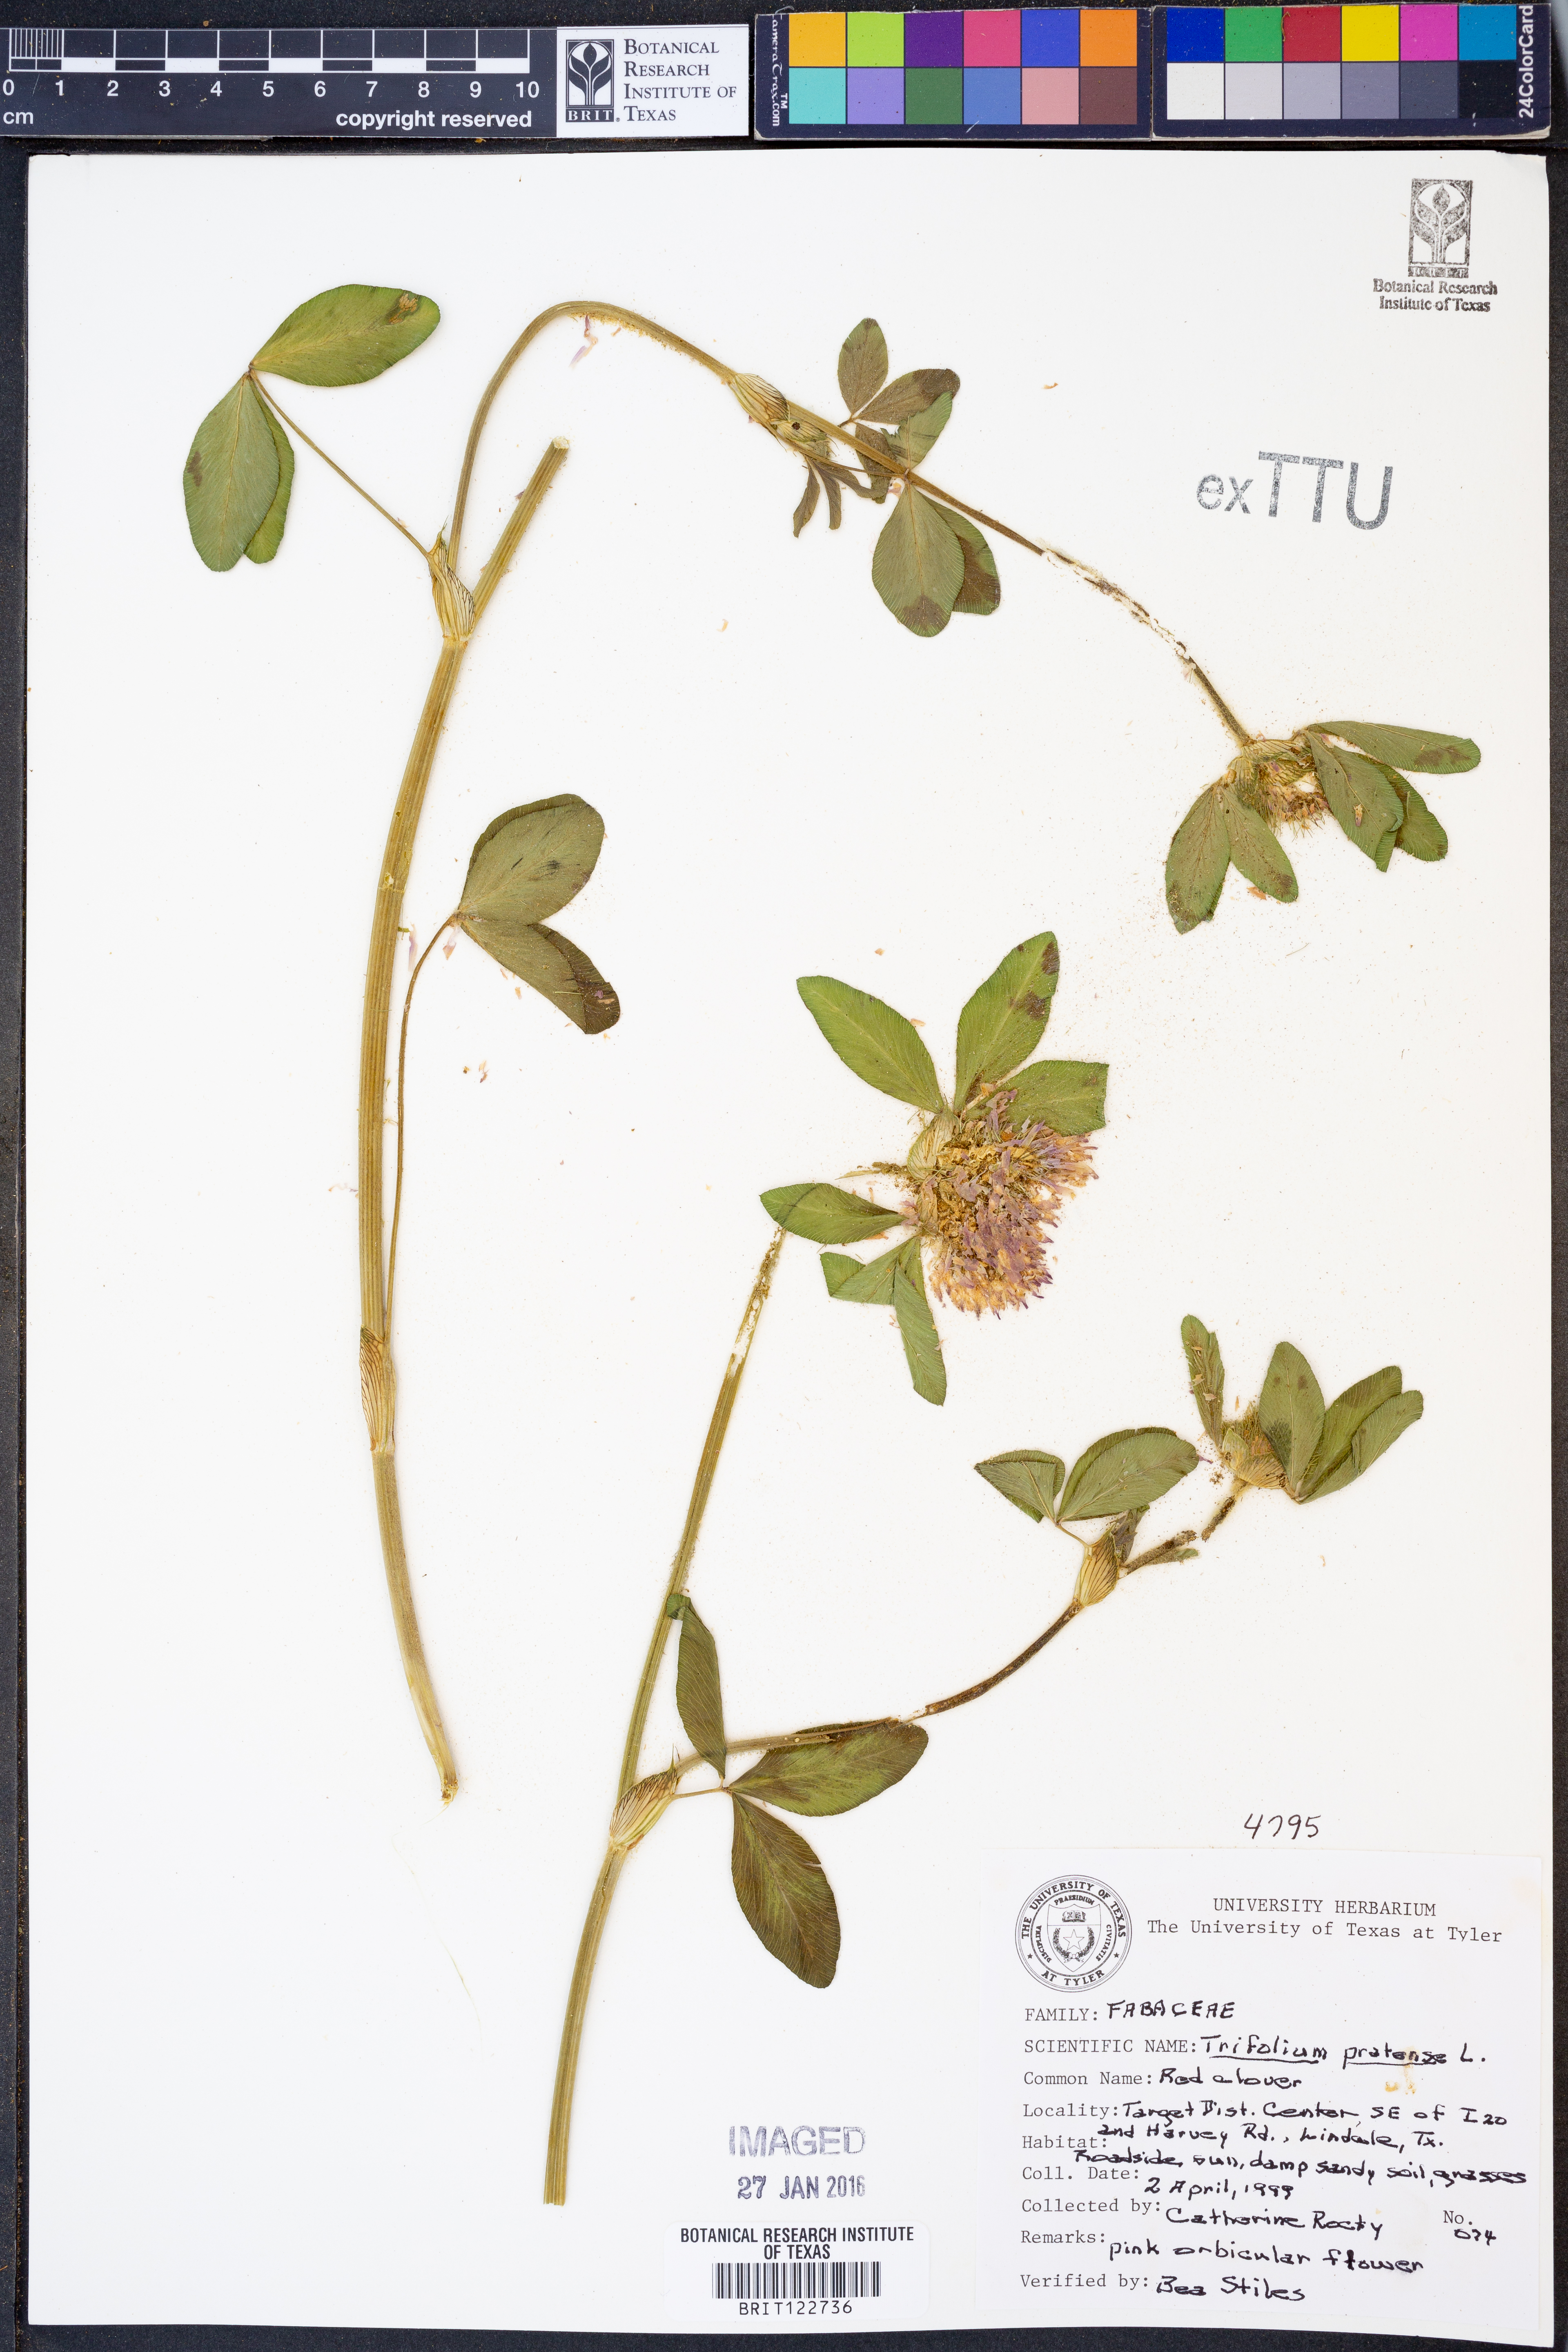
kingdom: Plantae
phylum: Tracheophyta
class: Magnoliopsida
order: Fabales
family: Fabaceae
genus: Trifolium
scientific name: Trifolium pratense
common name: Red clover
